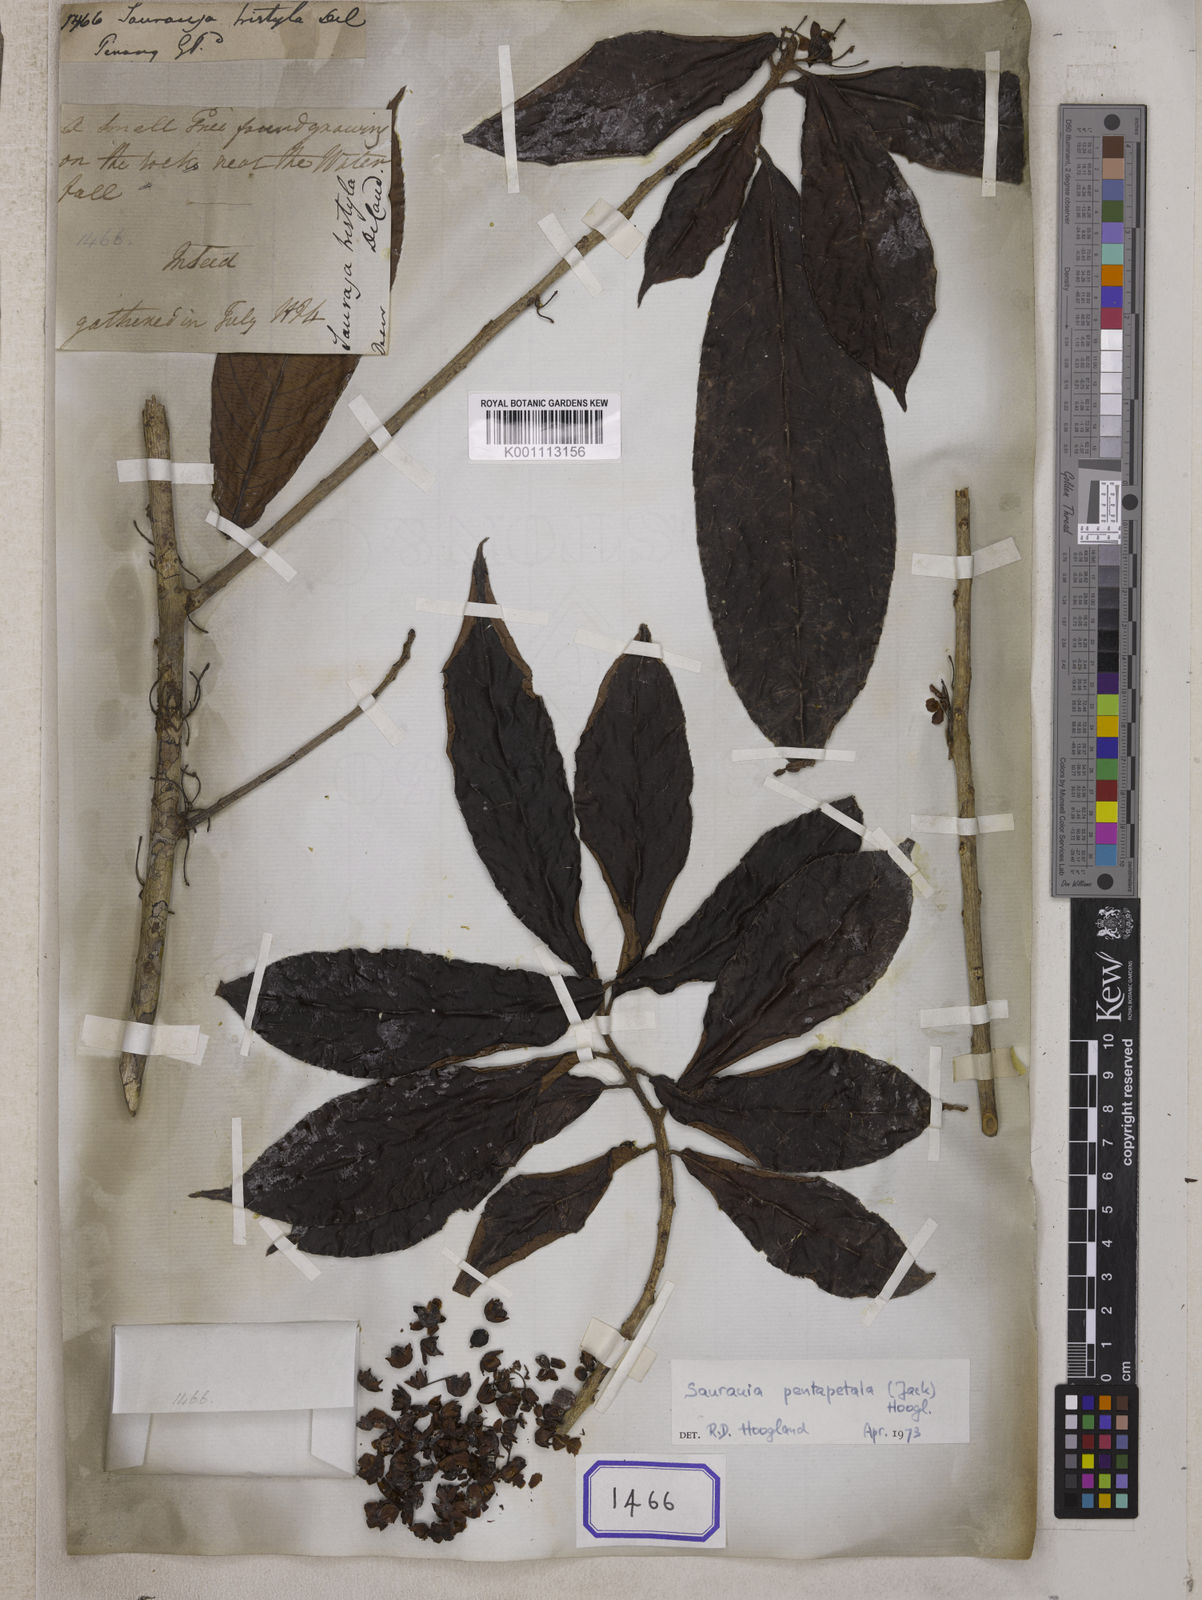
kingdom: Plantae
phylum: Tracheophyta
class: Magnoliopsida
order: Ericales
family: Actinidiaceae
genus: Saurauia
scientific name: Saurauia tristyla
